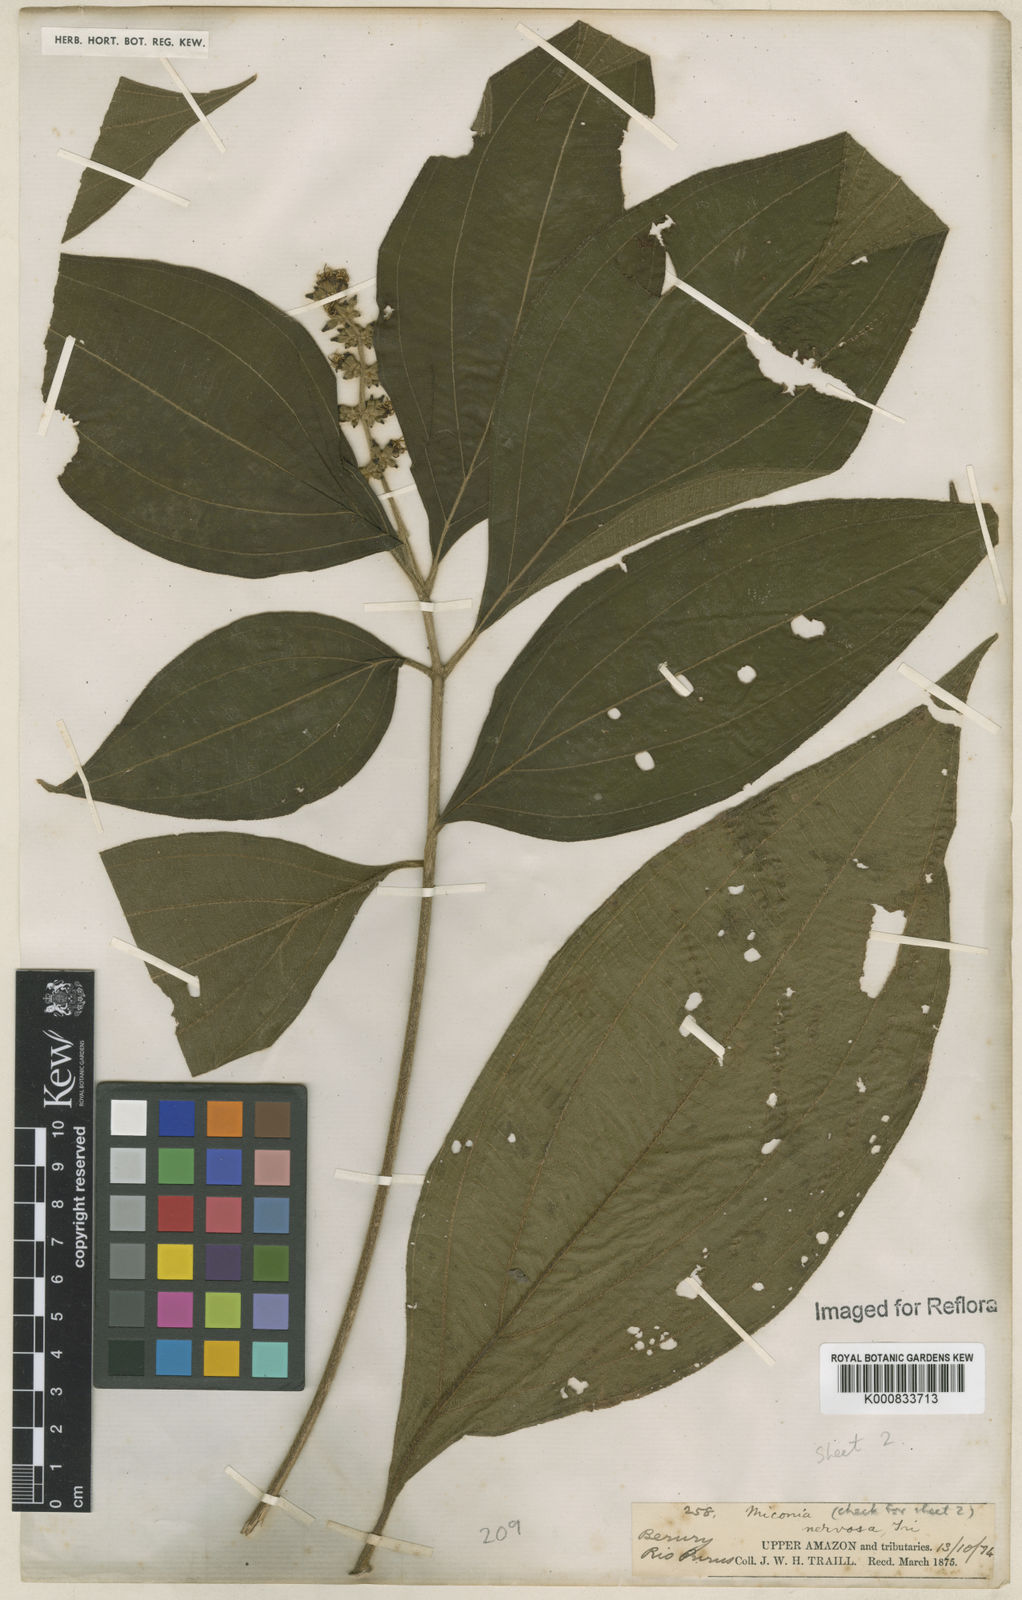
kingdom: Plantae
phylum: Tracheophyta
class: Magnoliopsida
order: Myrtales
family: Melastomataceae
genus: Miconia
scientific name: Miconia nervosa
